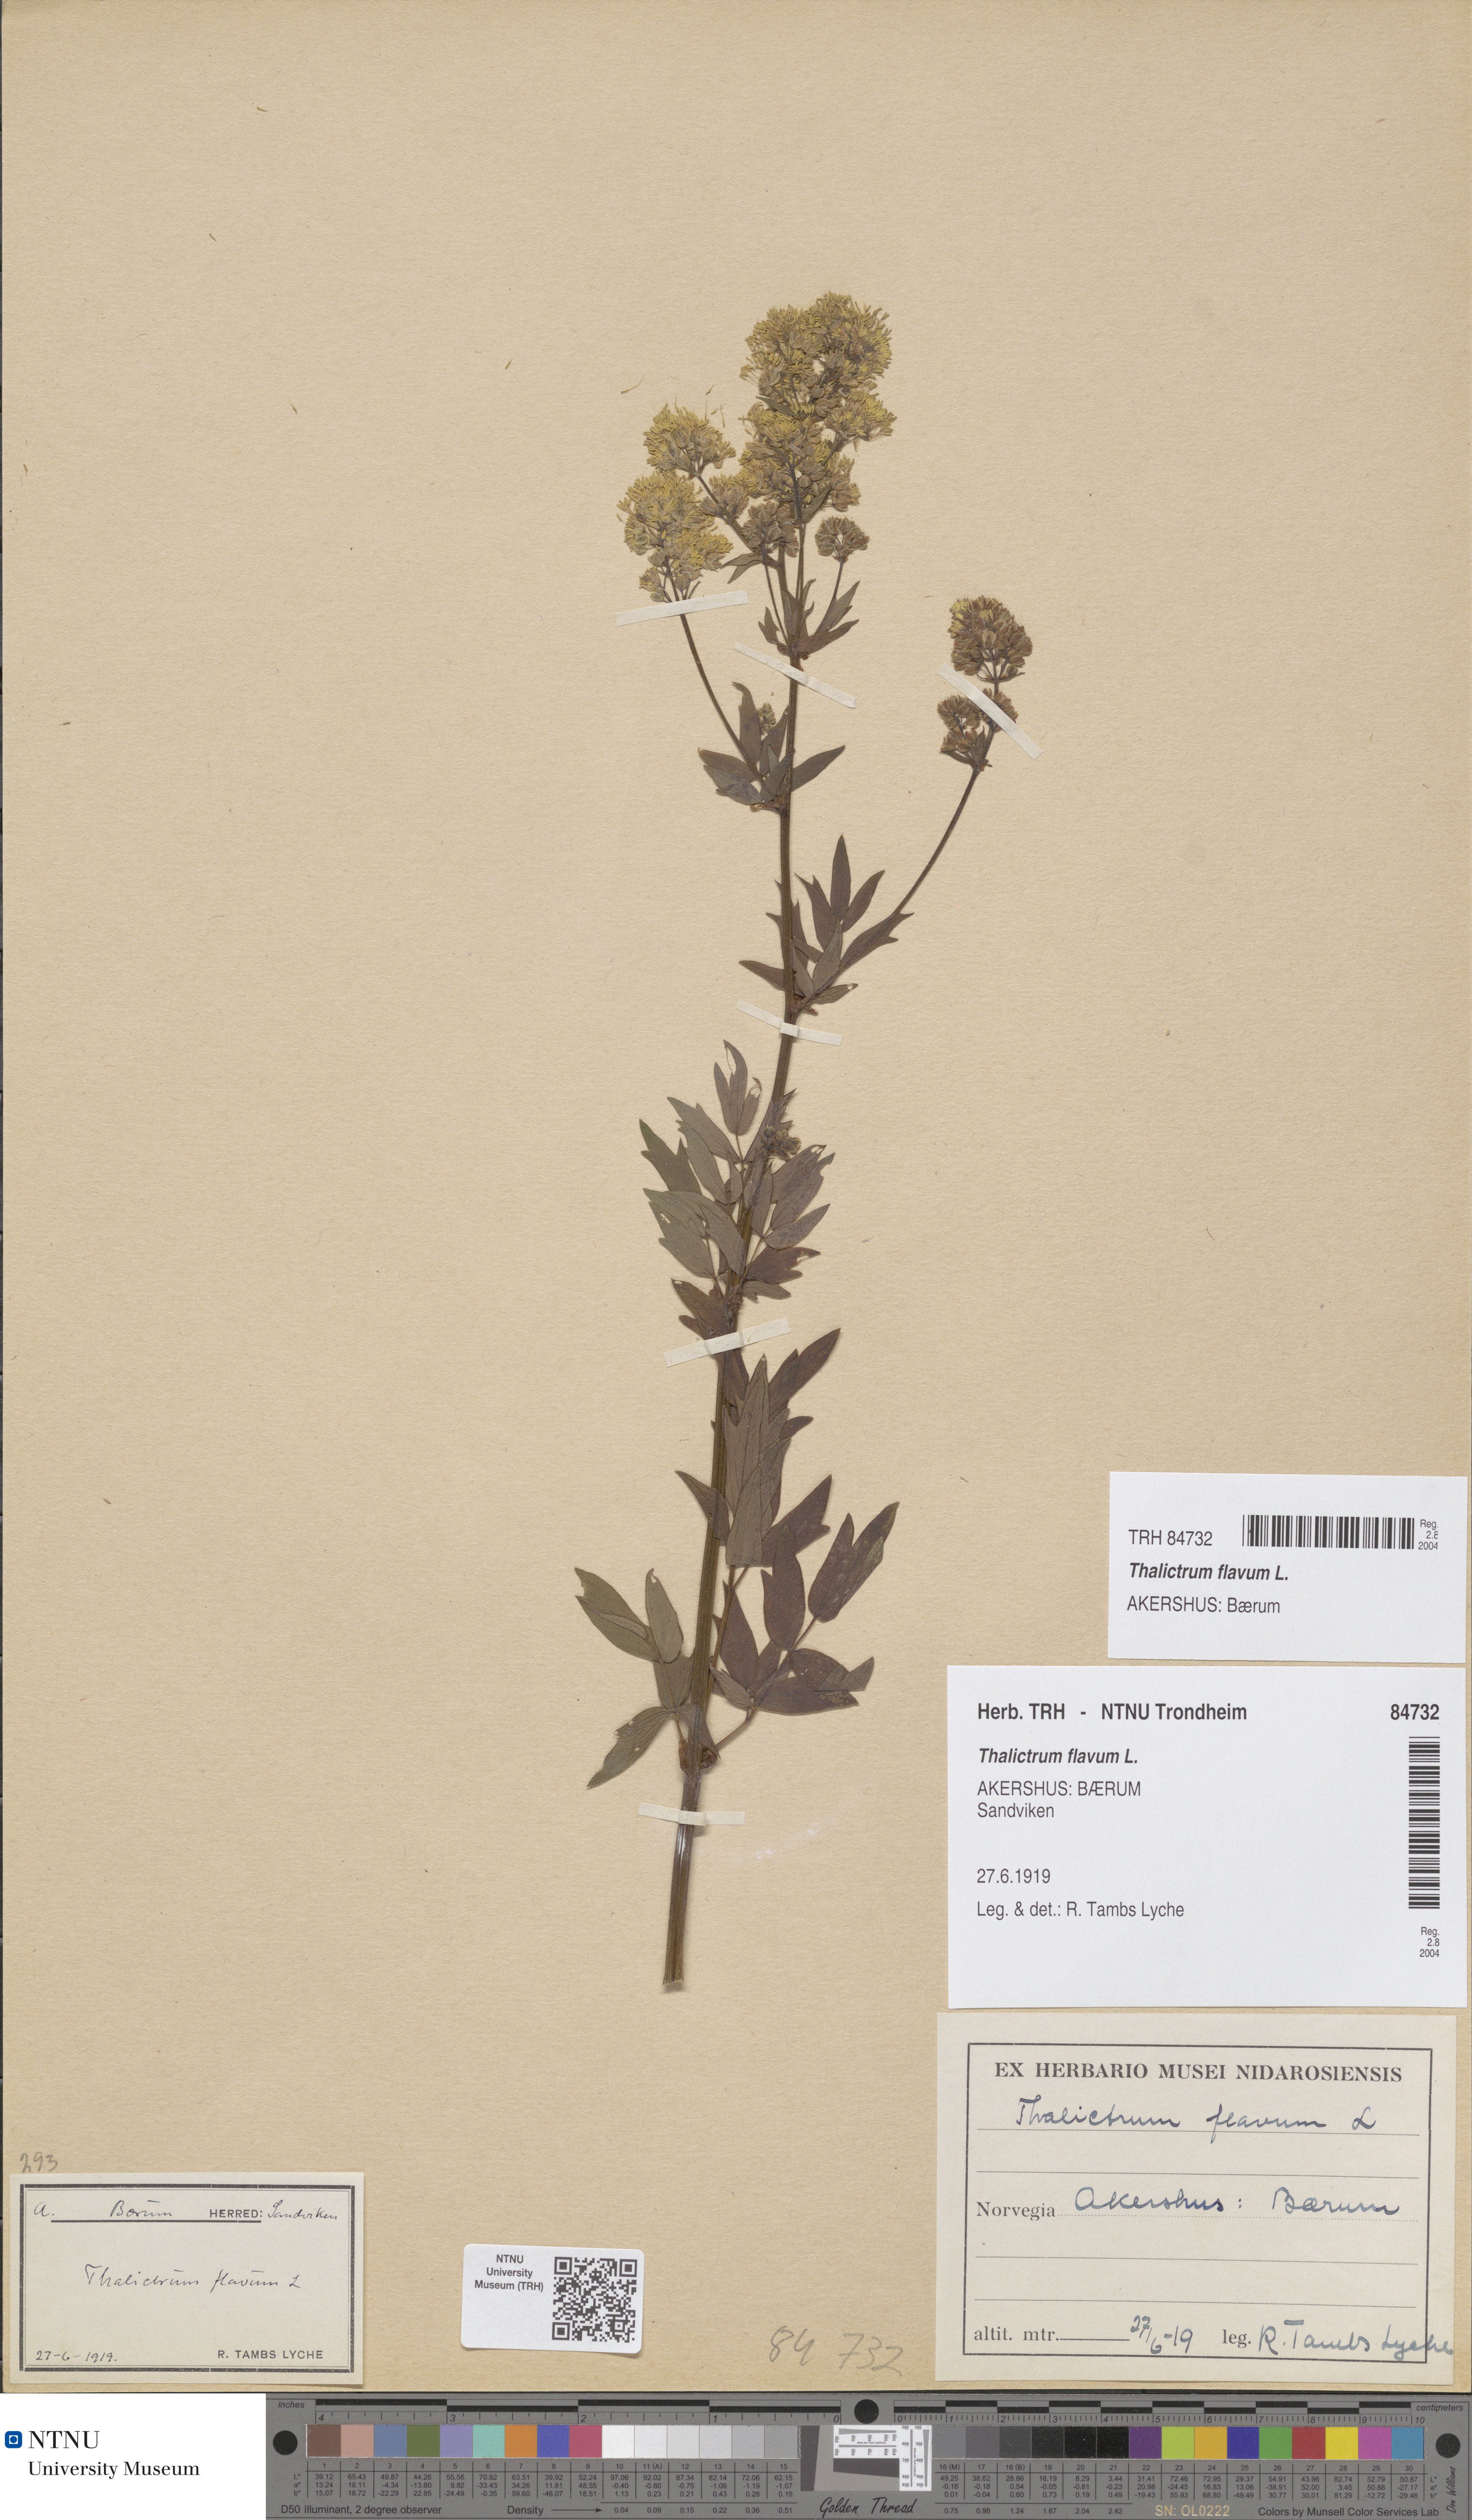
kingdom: Plantae
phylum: Tracheophyta
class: Magnoliopsida
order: Ranunculales
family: Ranunculaceae
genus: Thalictrum
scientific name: Thalictrum flavum
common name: Common meadow-rue
